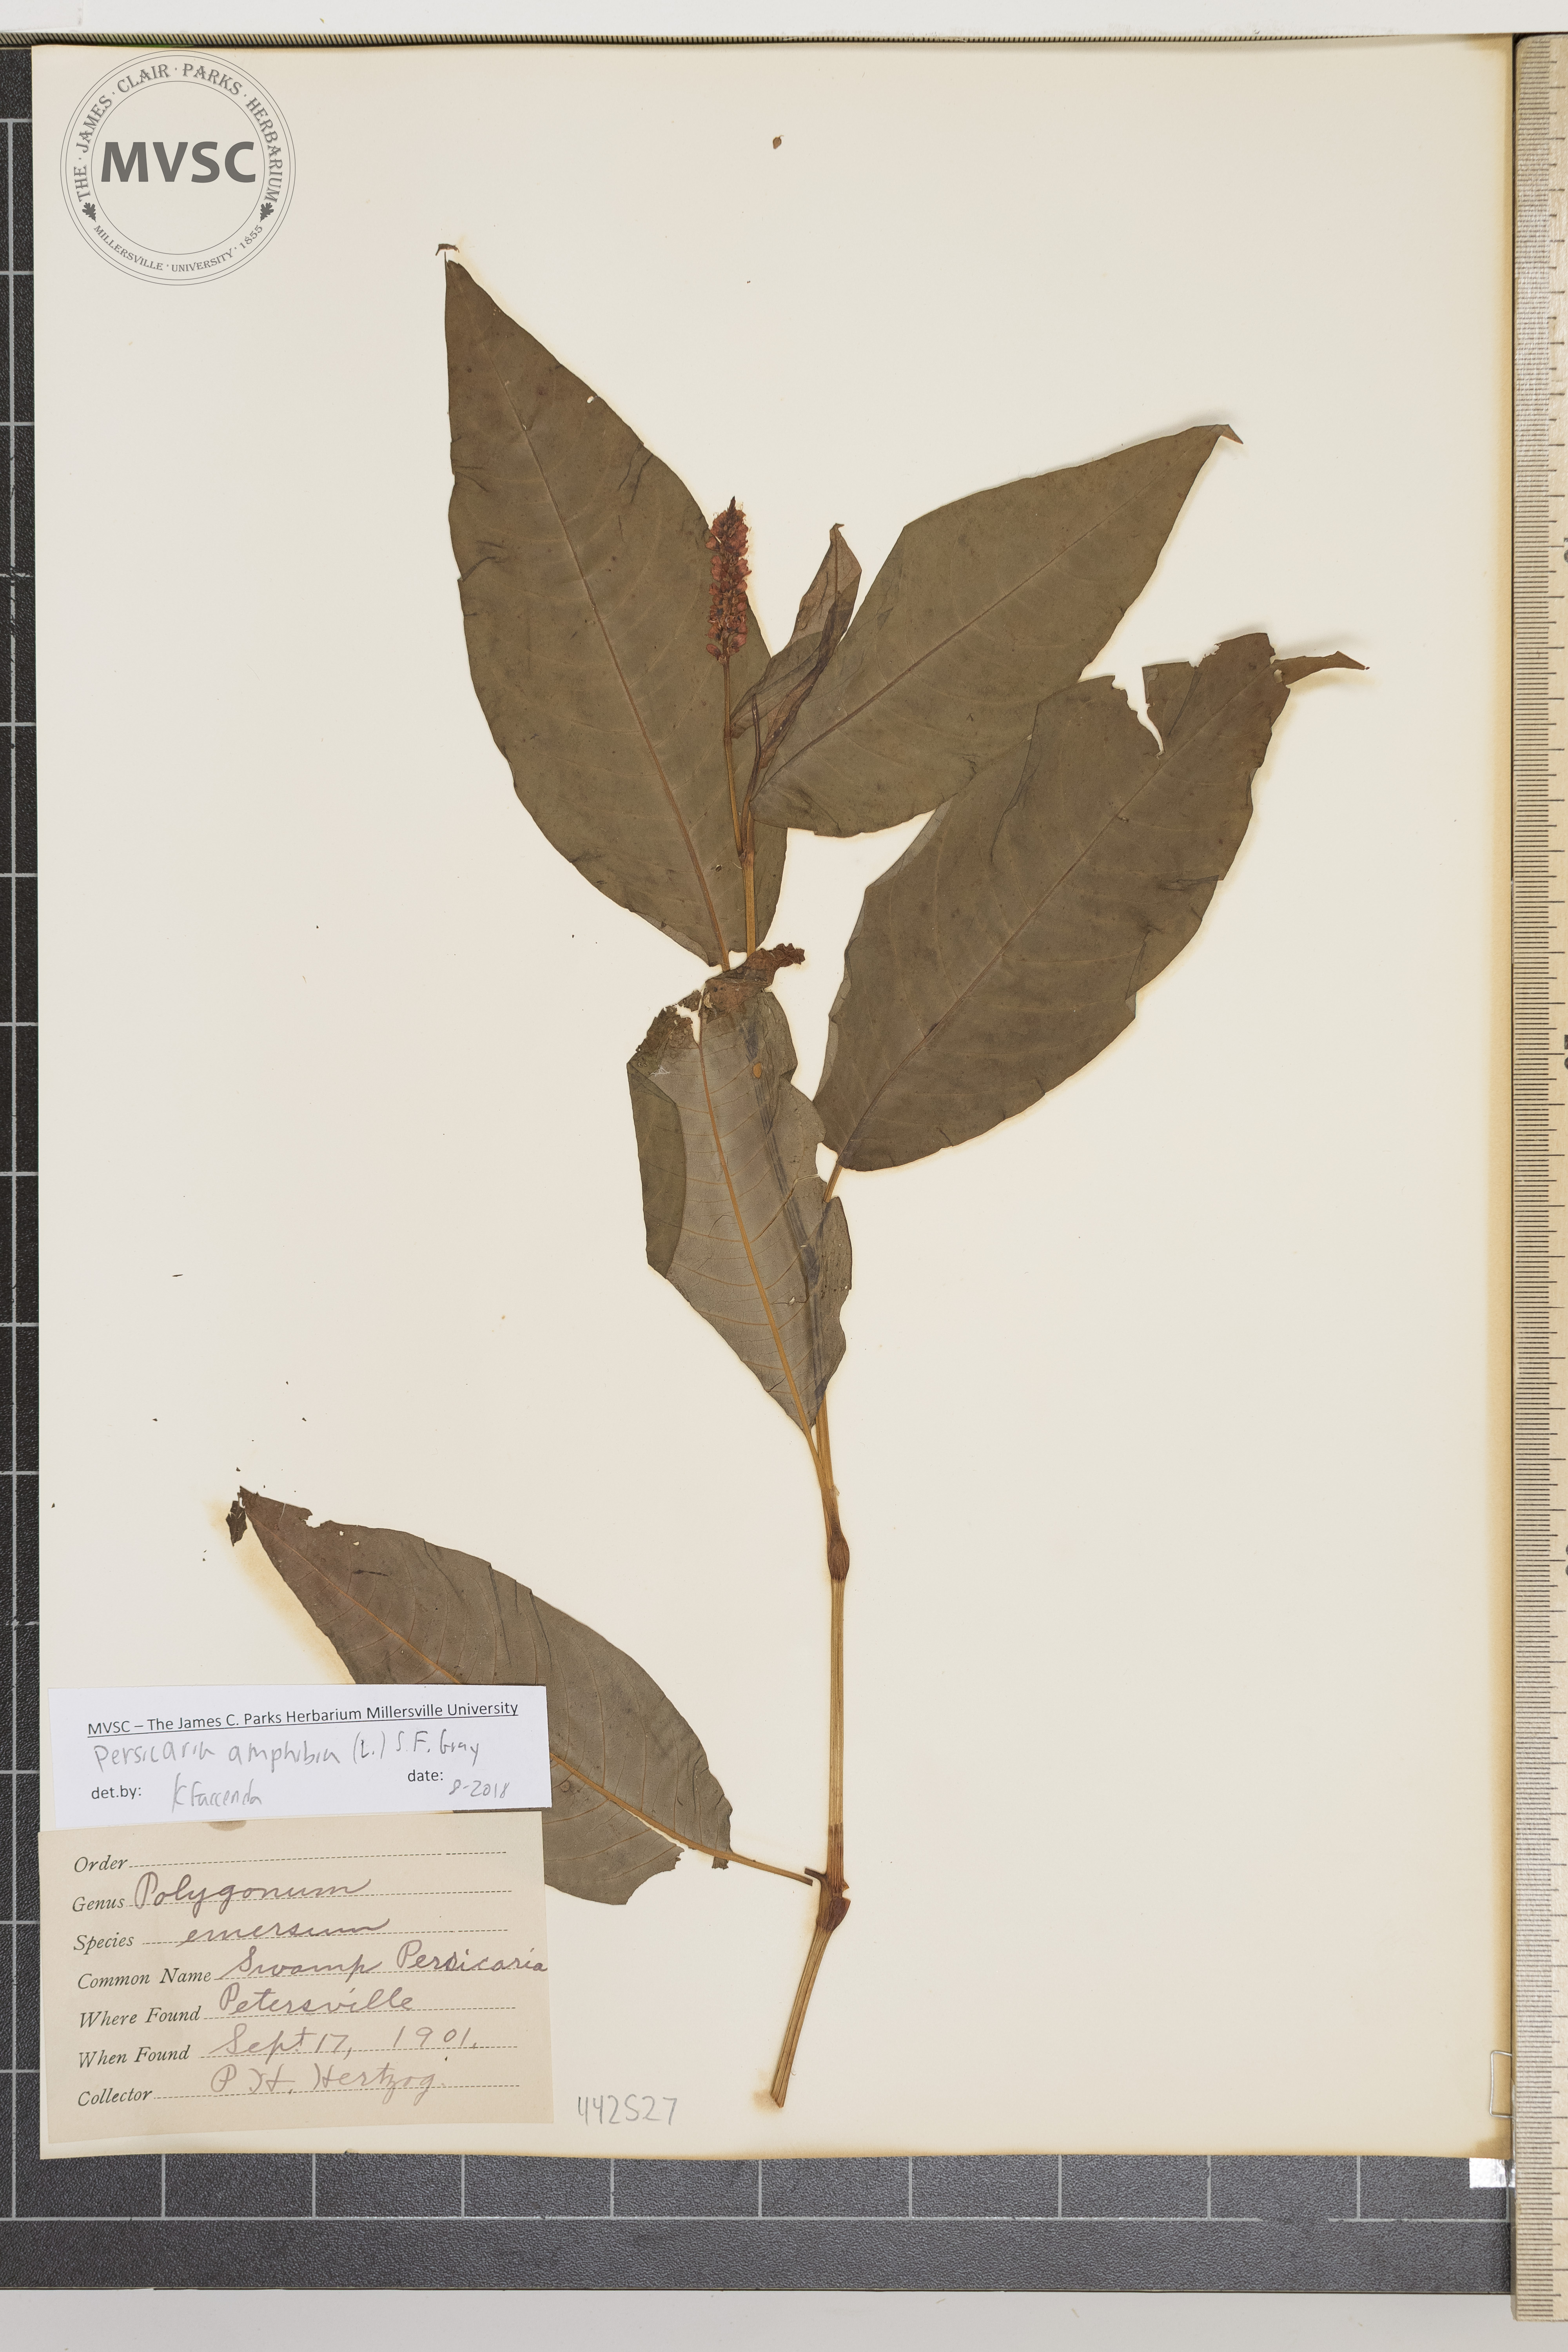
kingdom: Plantae
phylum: Tracheophyta
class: Magnoliopsida
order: Caryophyllales
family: Polygonaceae
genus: Persicaria
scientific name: Persicaria amphibia
